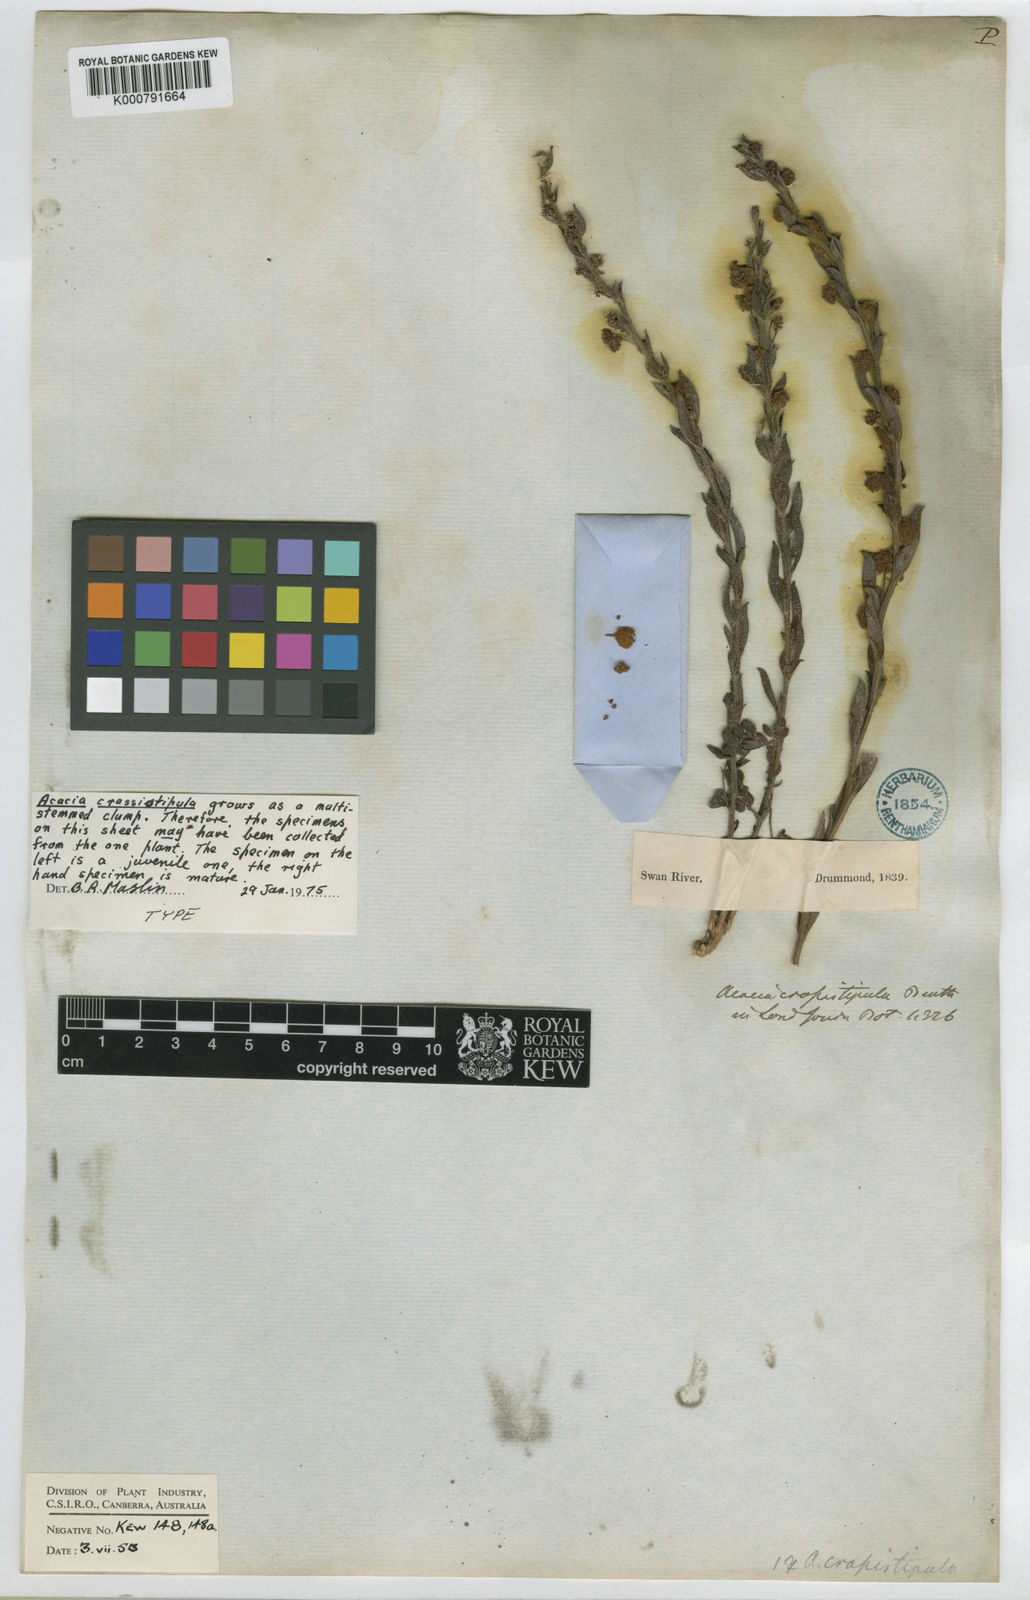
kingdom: Plantae
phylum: Tracheophyta
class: Magnoliopsida
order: Fabales
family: Fabaceae
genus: Acacia
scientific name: Acacia crassistipula
